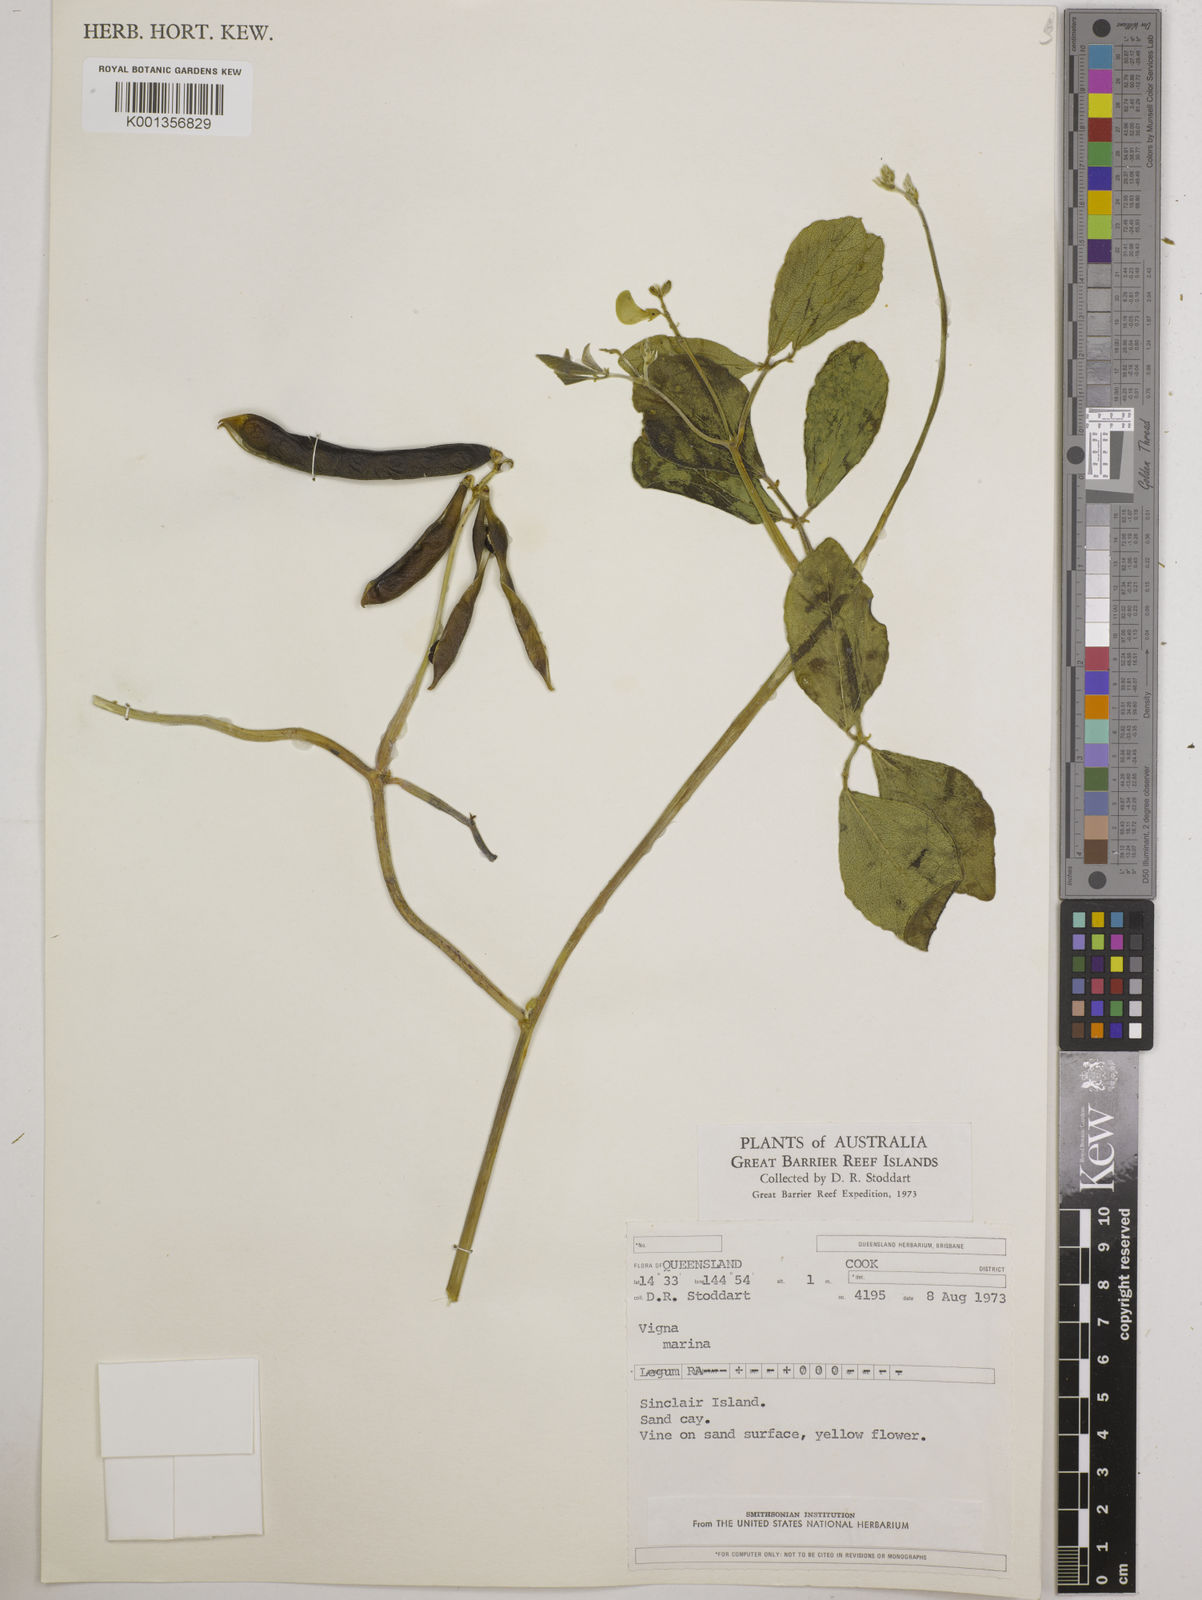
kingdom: Plantae
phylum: Tracheophyta
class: Magnoliopsida
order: Fabales
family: Fabaceae
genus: Vigna
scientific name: Vigna marina
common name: Dune-bean
